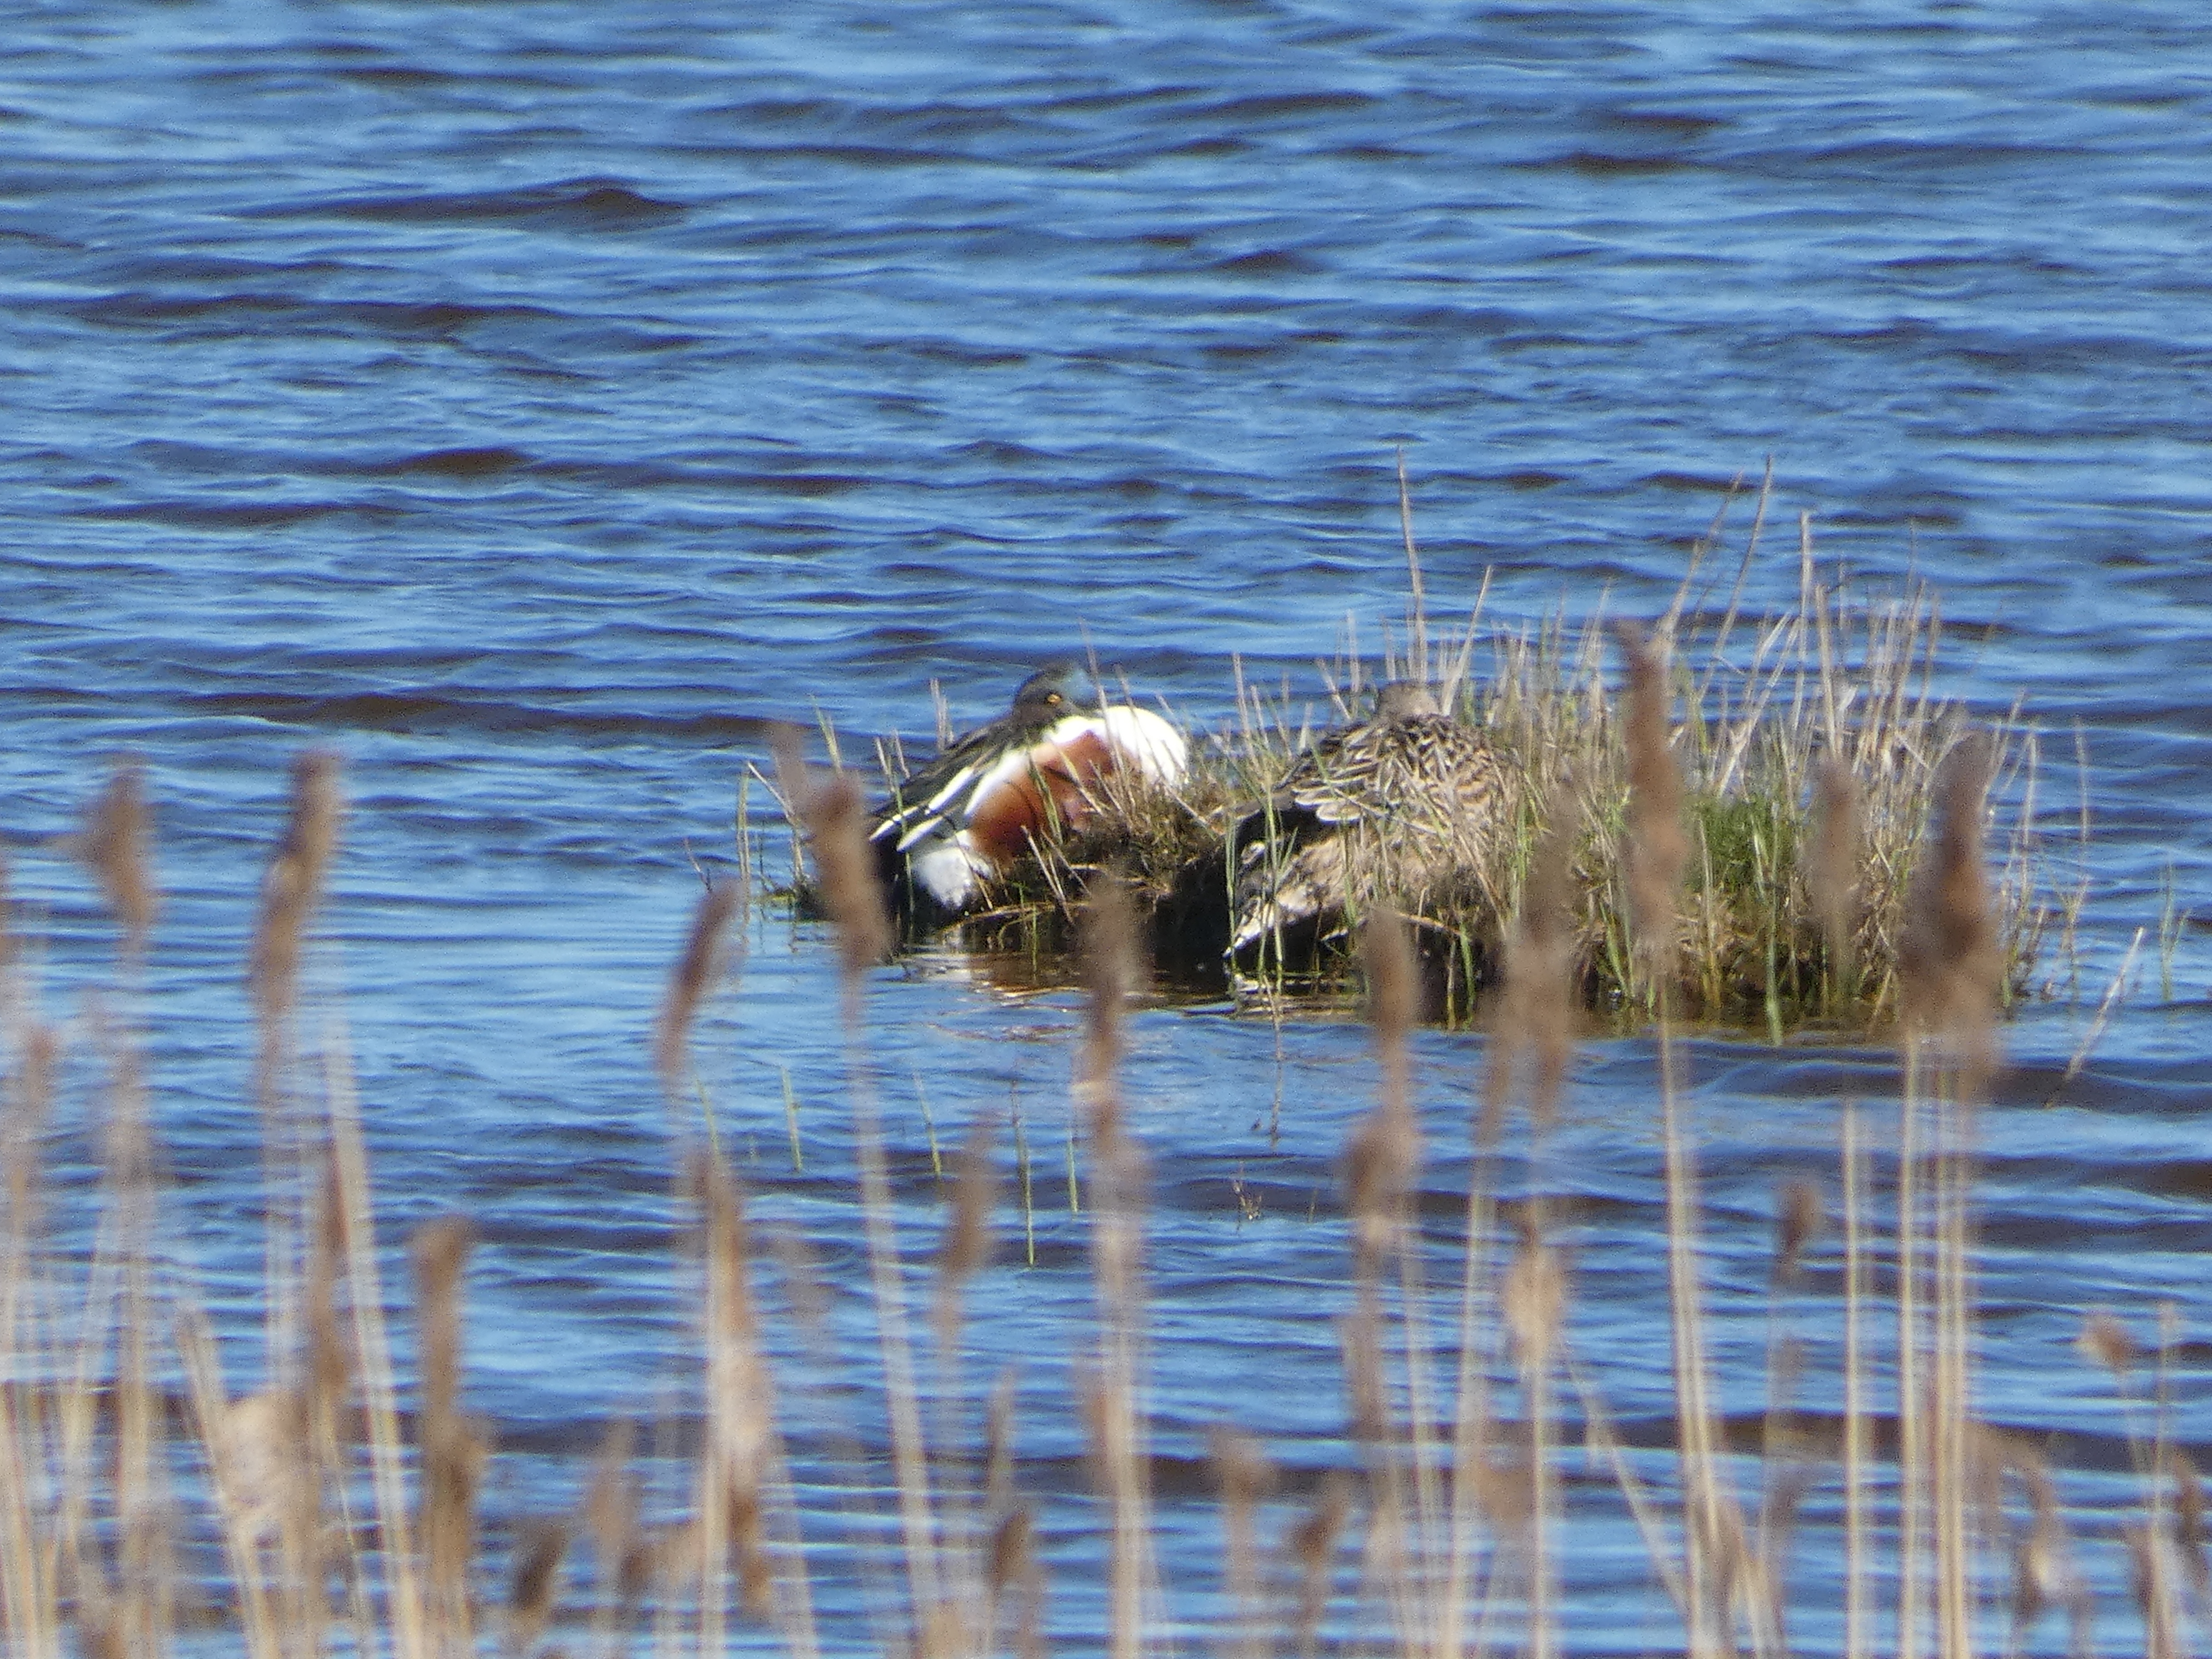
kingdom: Animalia
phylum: Chordata
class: Aves
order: Anseriformes
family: Anatidae
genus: Spatula
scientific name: Spatula clypeata
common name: Skeand
